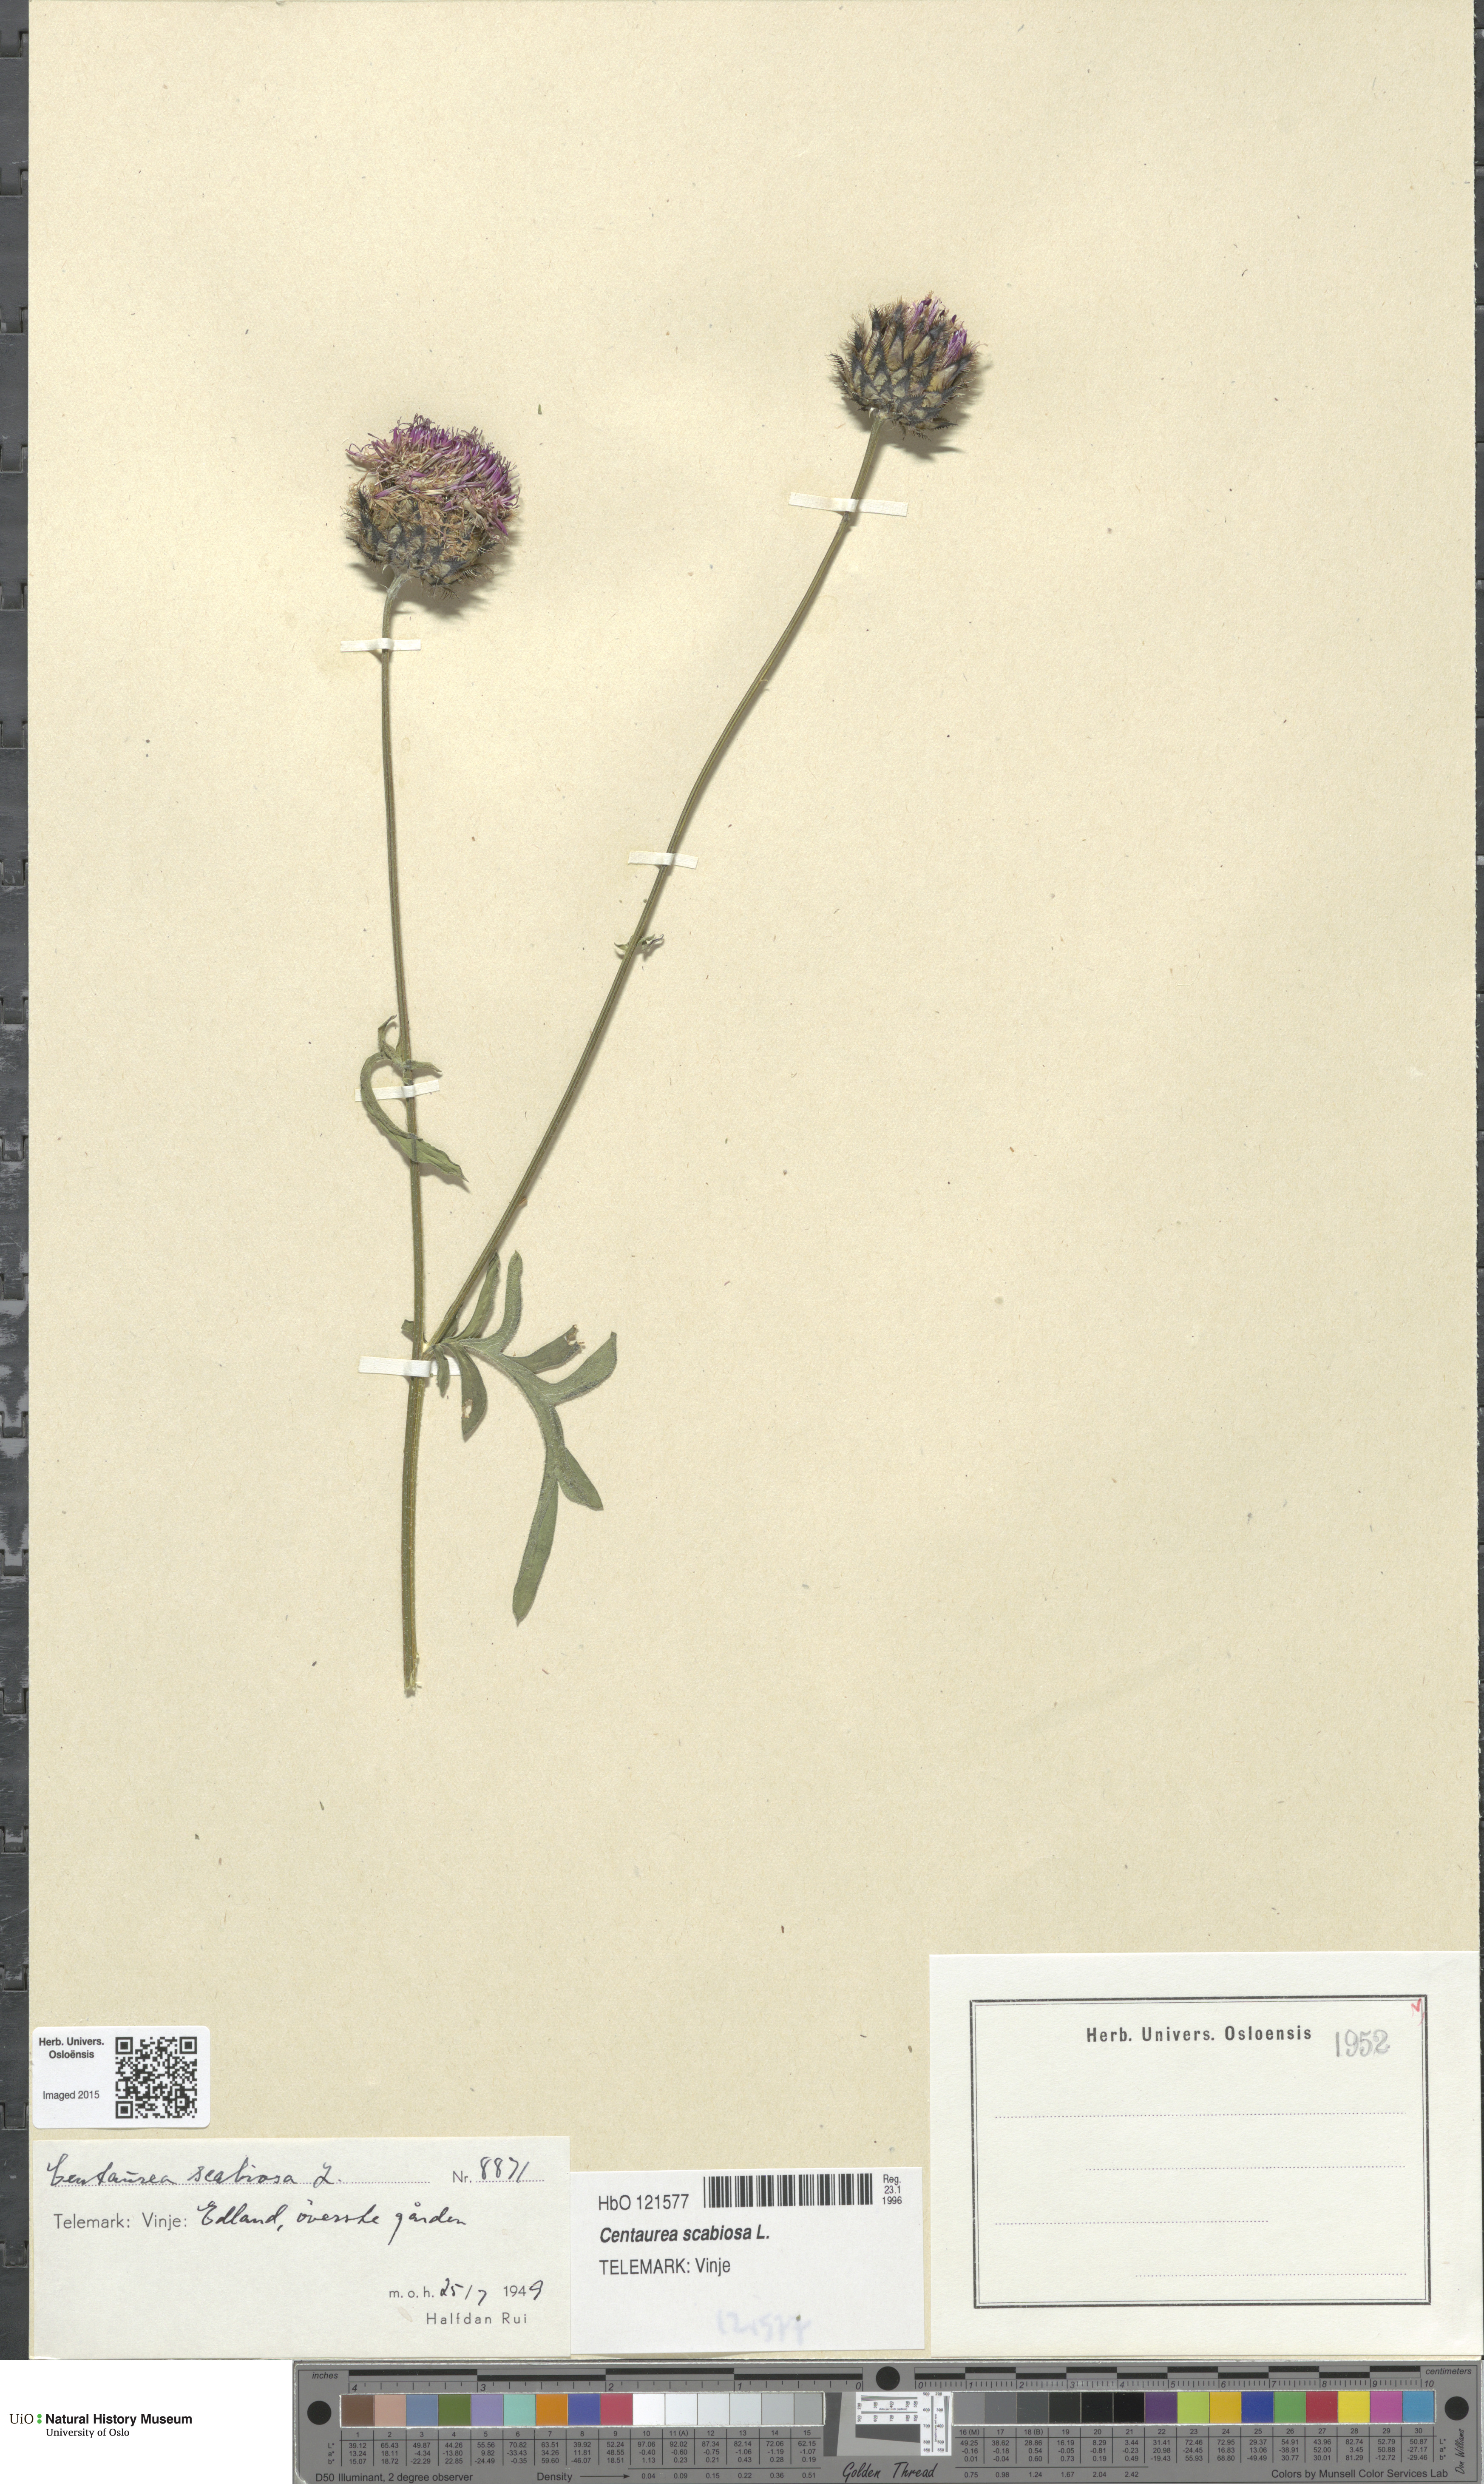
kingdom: Plantae
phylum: Tracheophyta
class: Magnoliopsida
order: Asterales
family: Asteraceae
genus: Centaurea
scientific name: Centaurea scabiosa
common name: Greater knapweed
